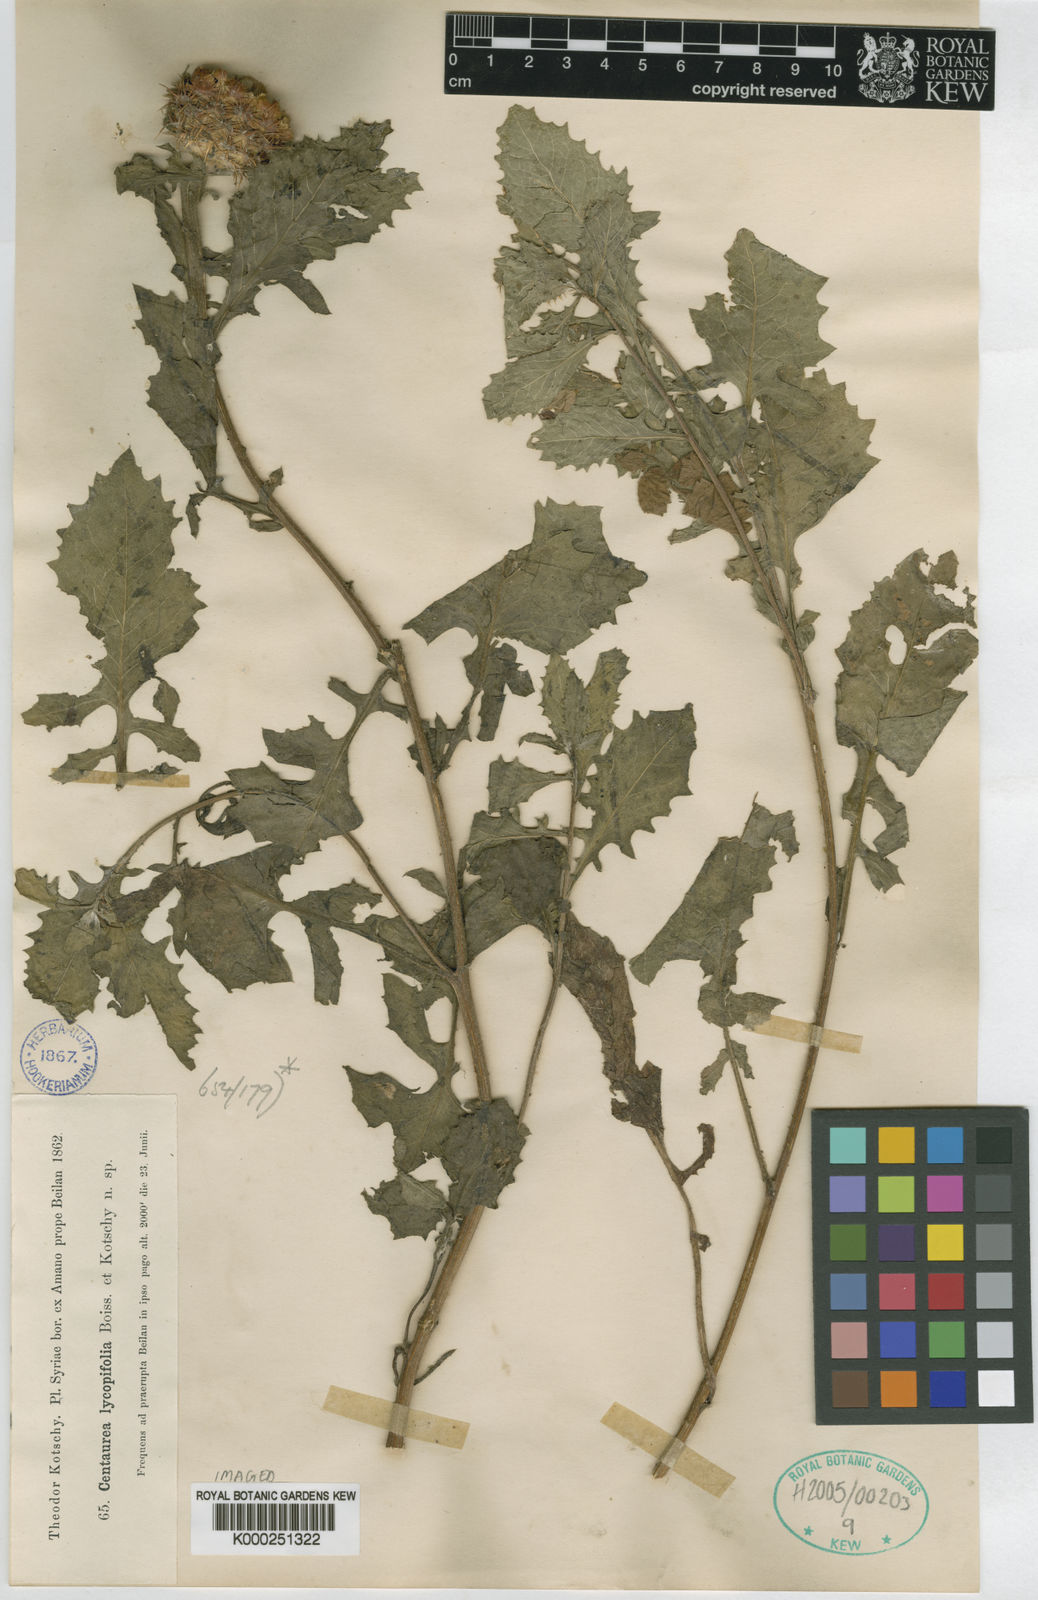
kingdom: Plantae
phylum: Tracheophyta
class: Magnoliopsida
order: Asterales
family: Asteraceae
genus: Centaurea
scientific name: Centaurea lycopifolia
